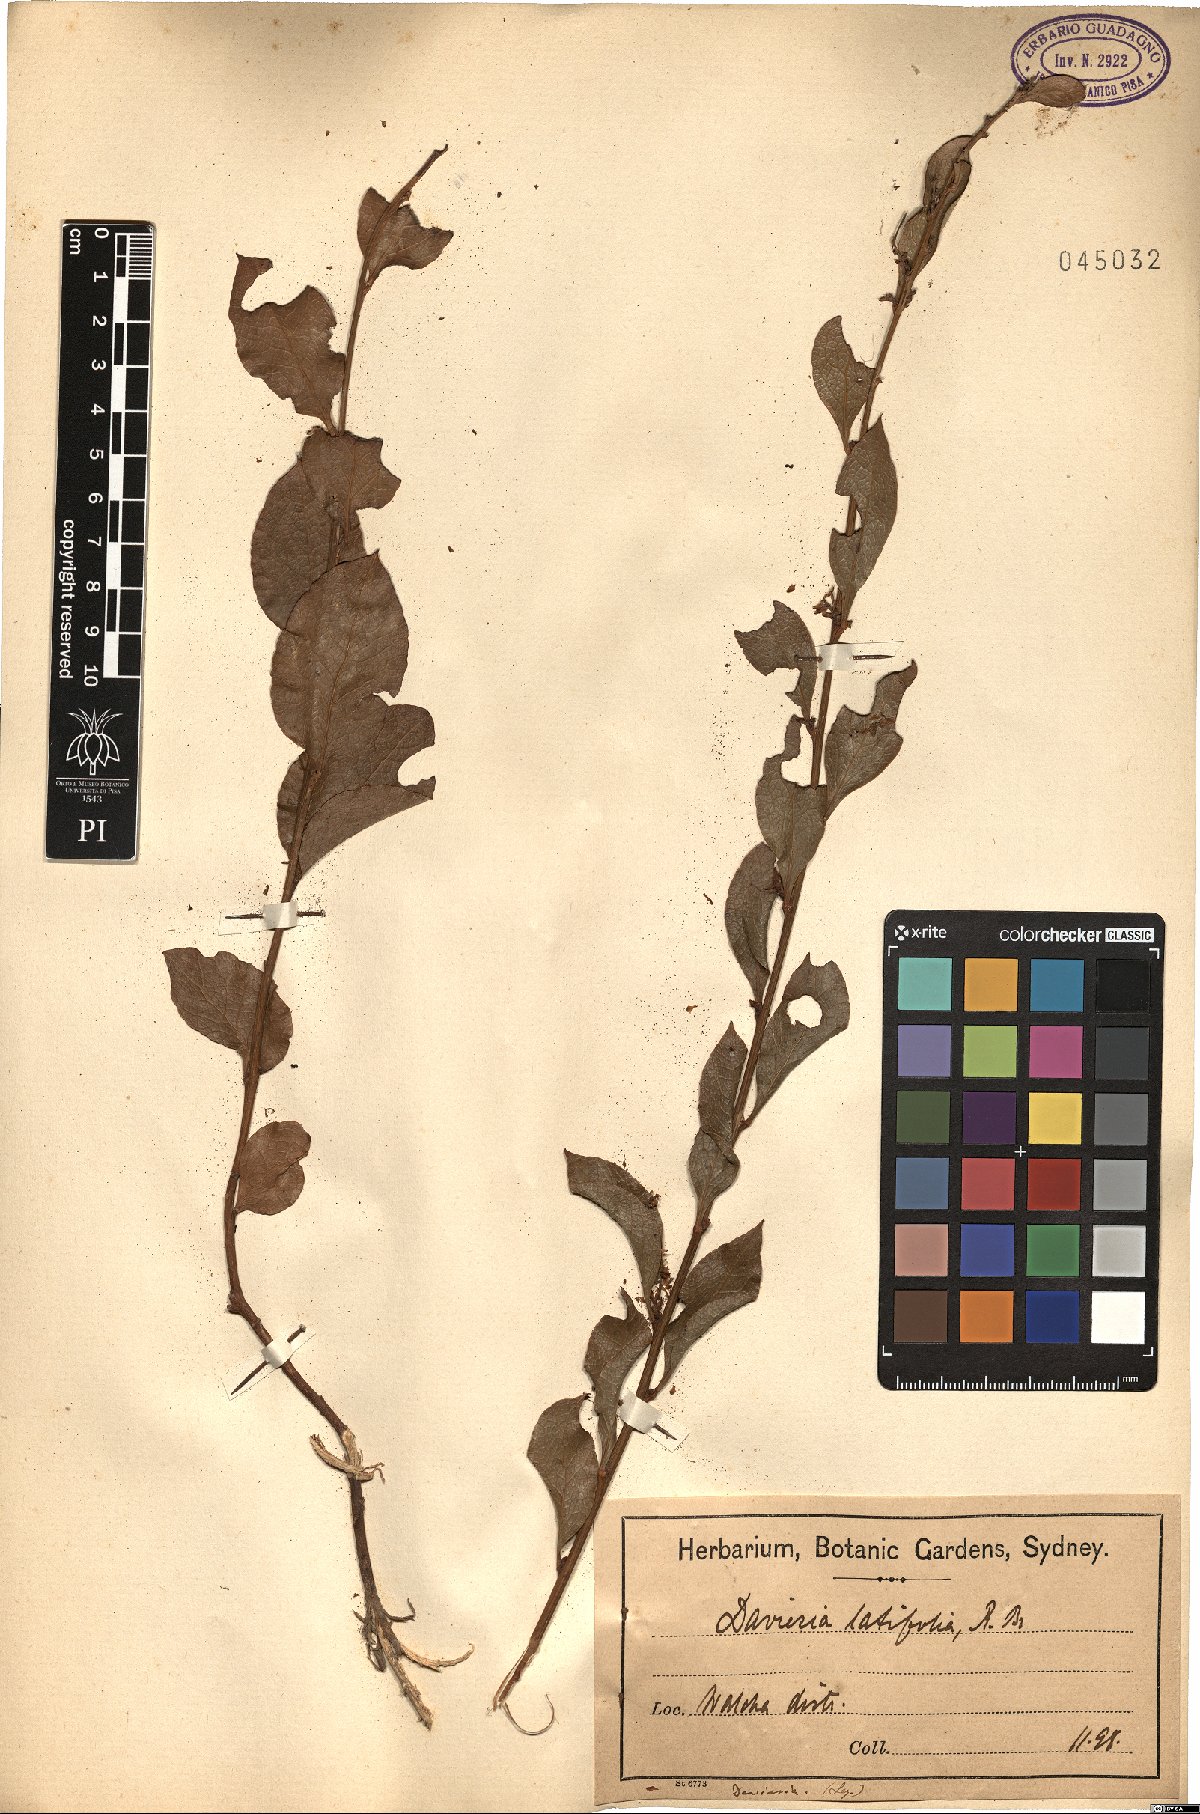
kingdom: Plantae
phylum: Tracheophyta
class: Magnoliopsida
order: Fabales
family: Fabaceae
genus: Daviesia
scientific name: Daviesia latifolia
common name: Hop bitter-pea
